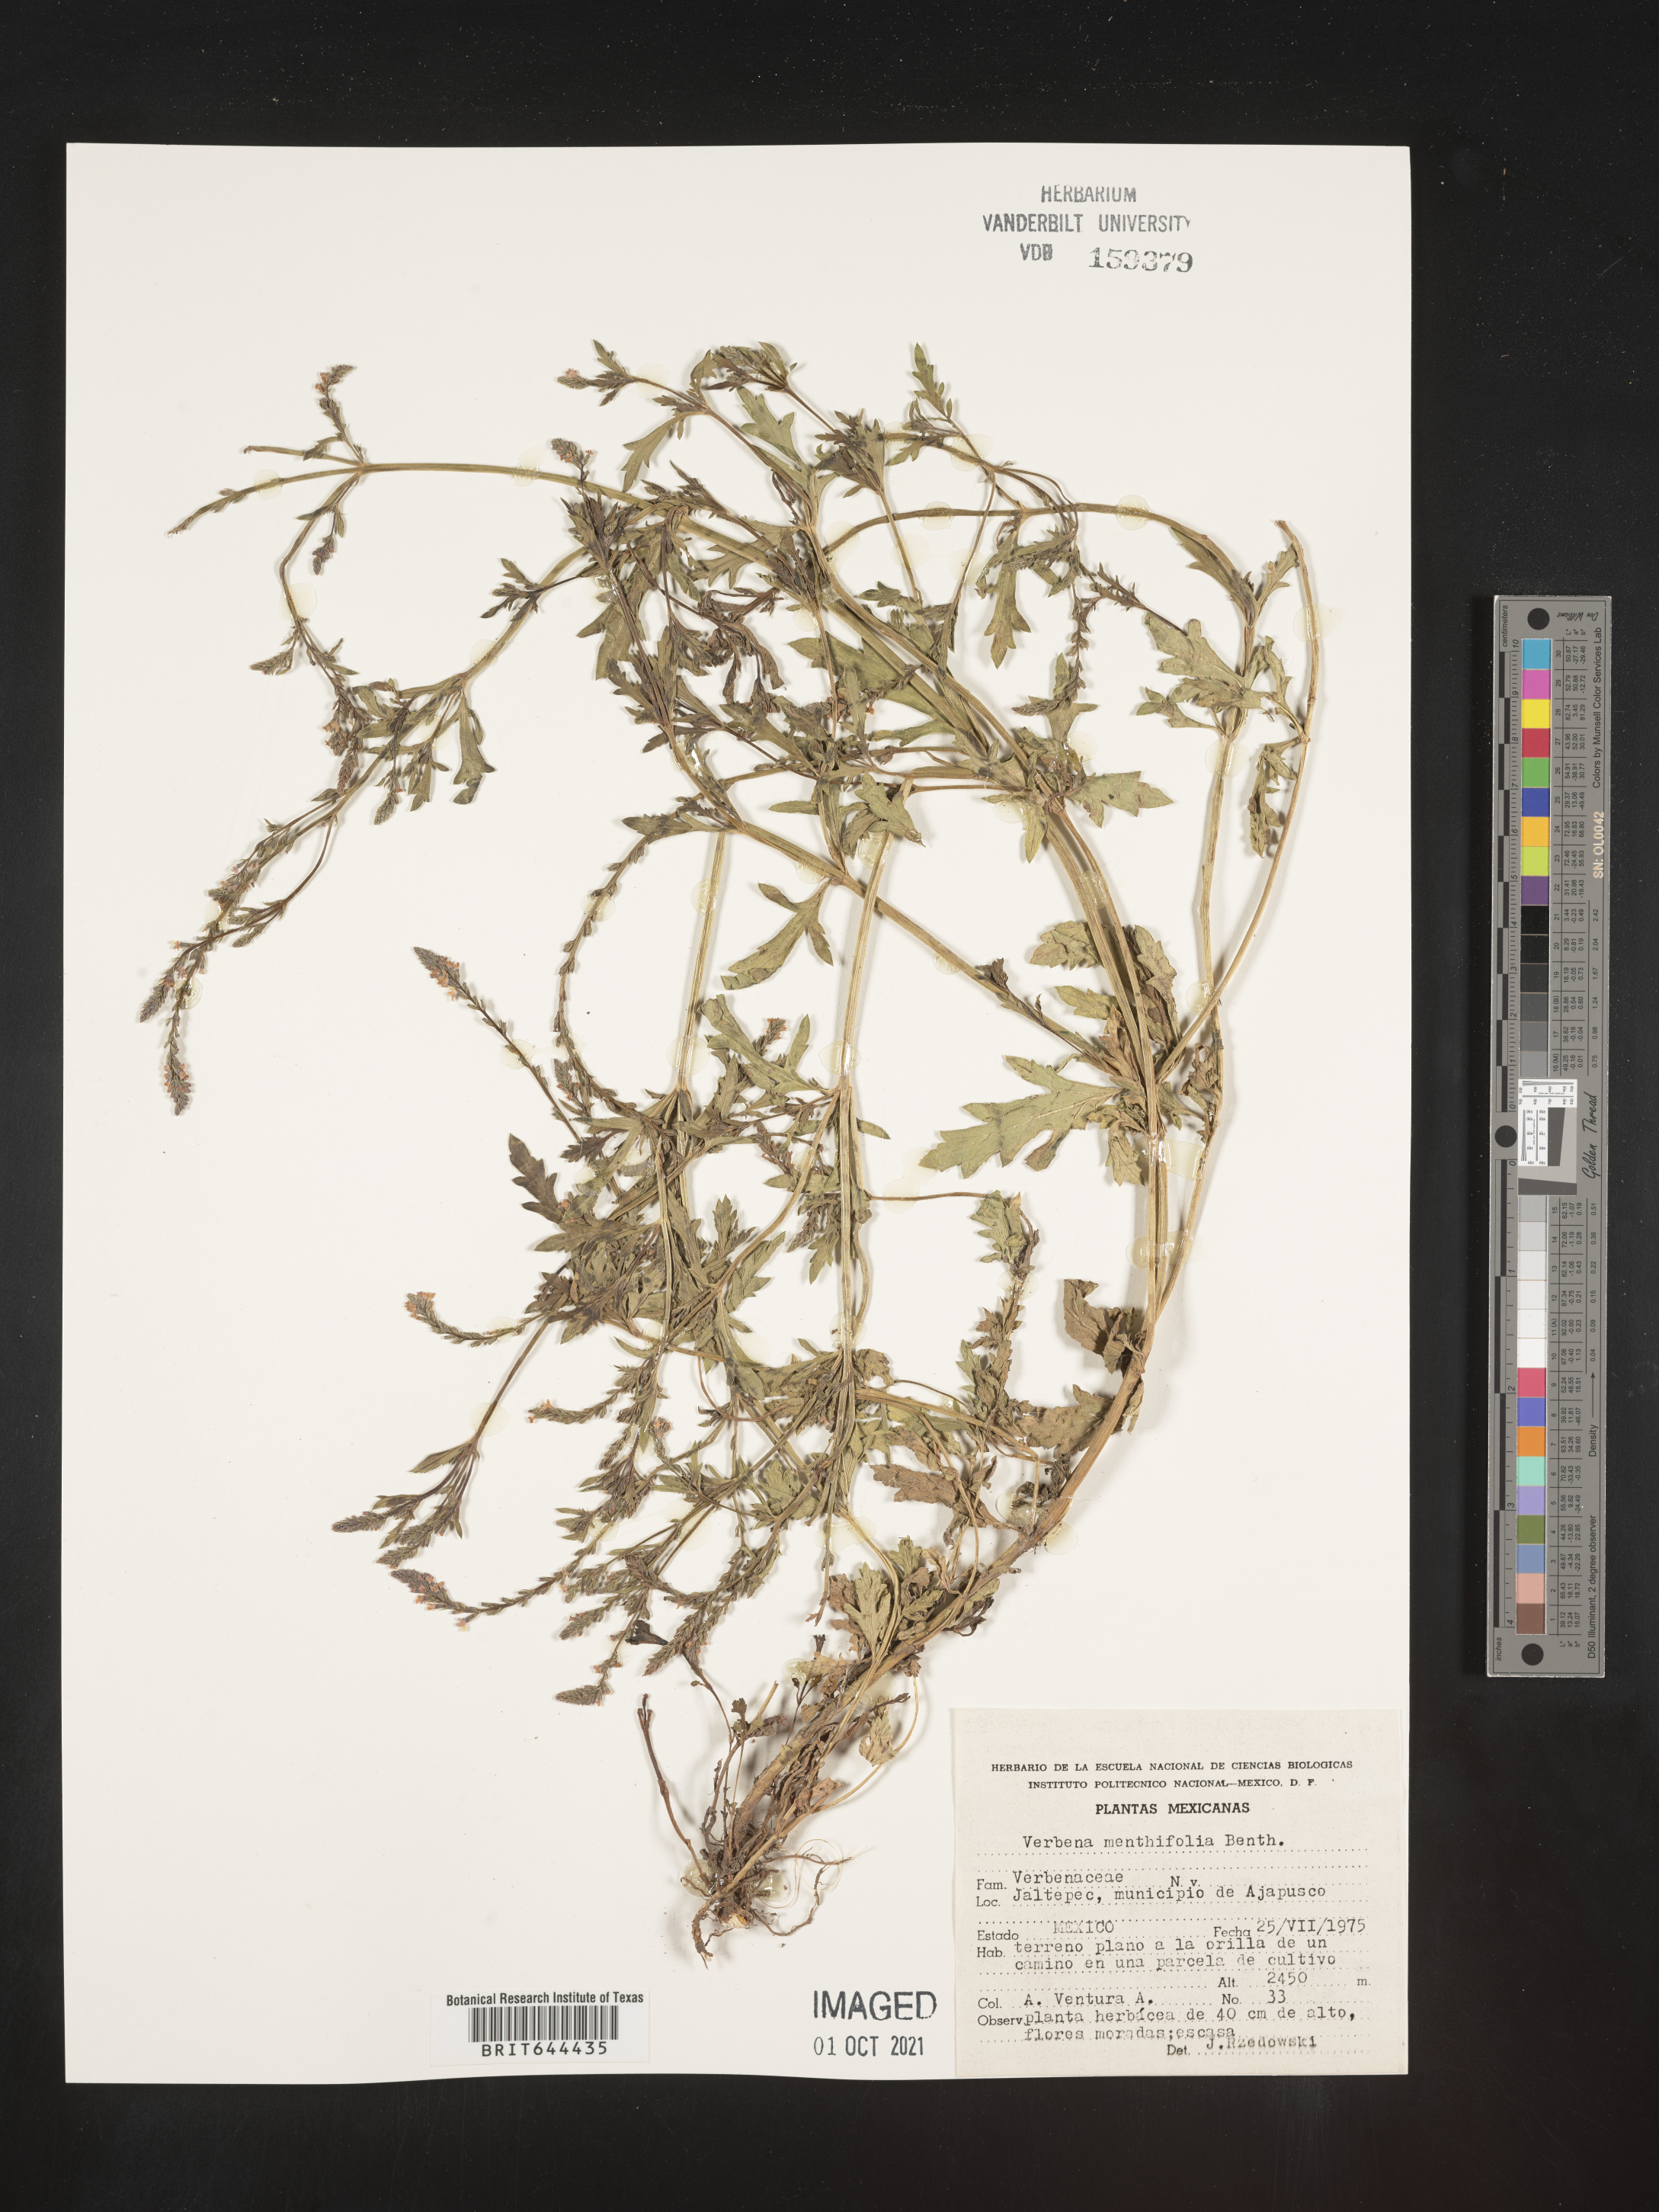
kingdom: Plantae
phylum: Tracheophyta
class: Magnoliopsida
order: Lamiales
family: Verbenaceae
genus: Verbena
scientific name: Verbena
